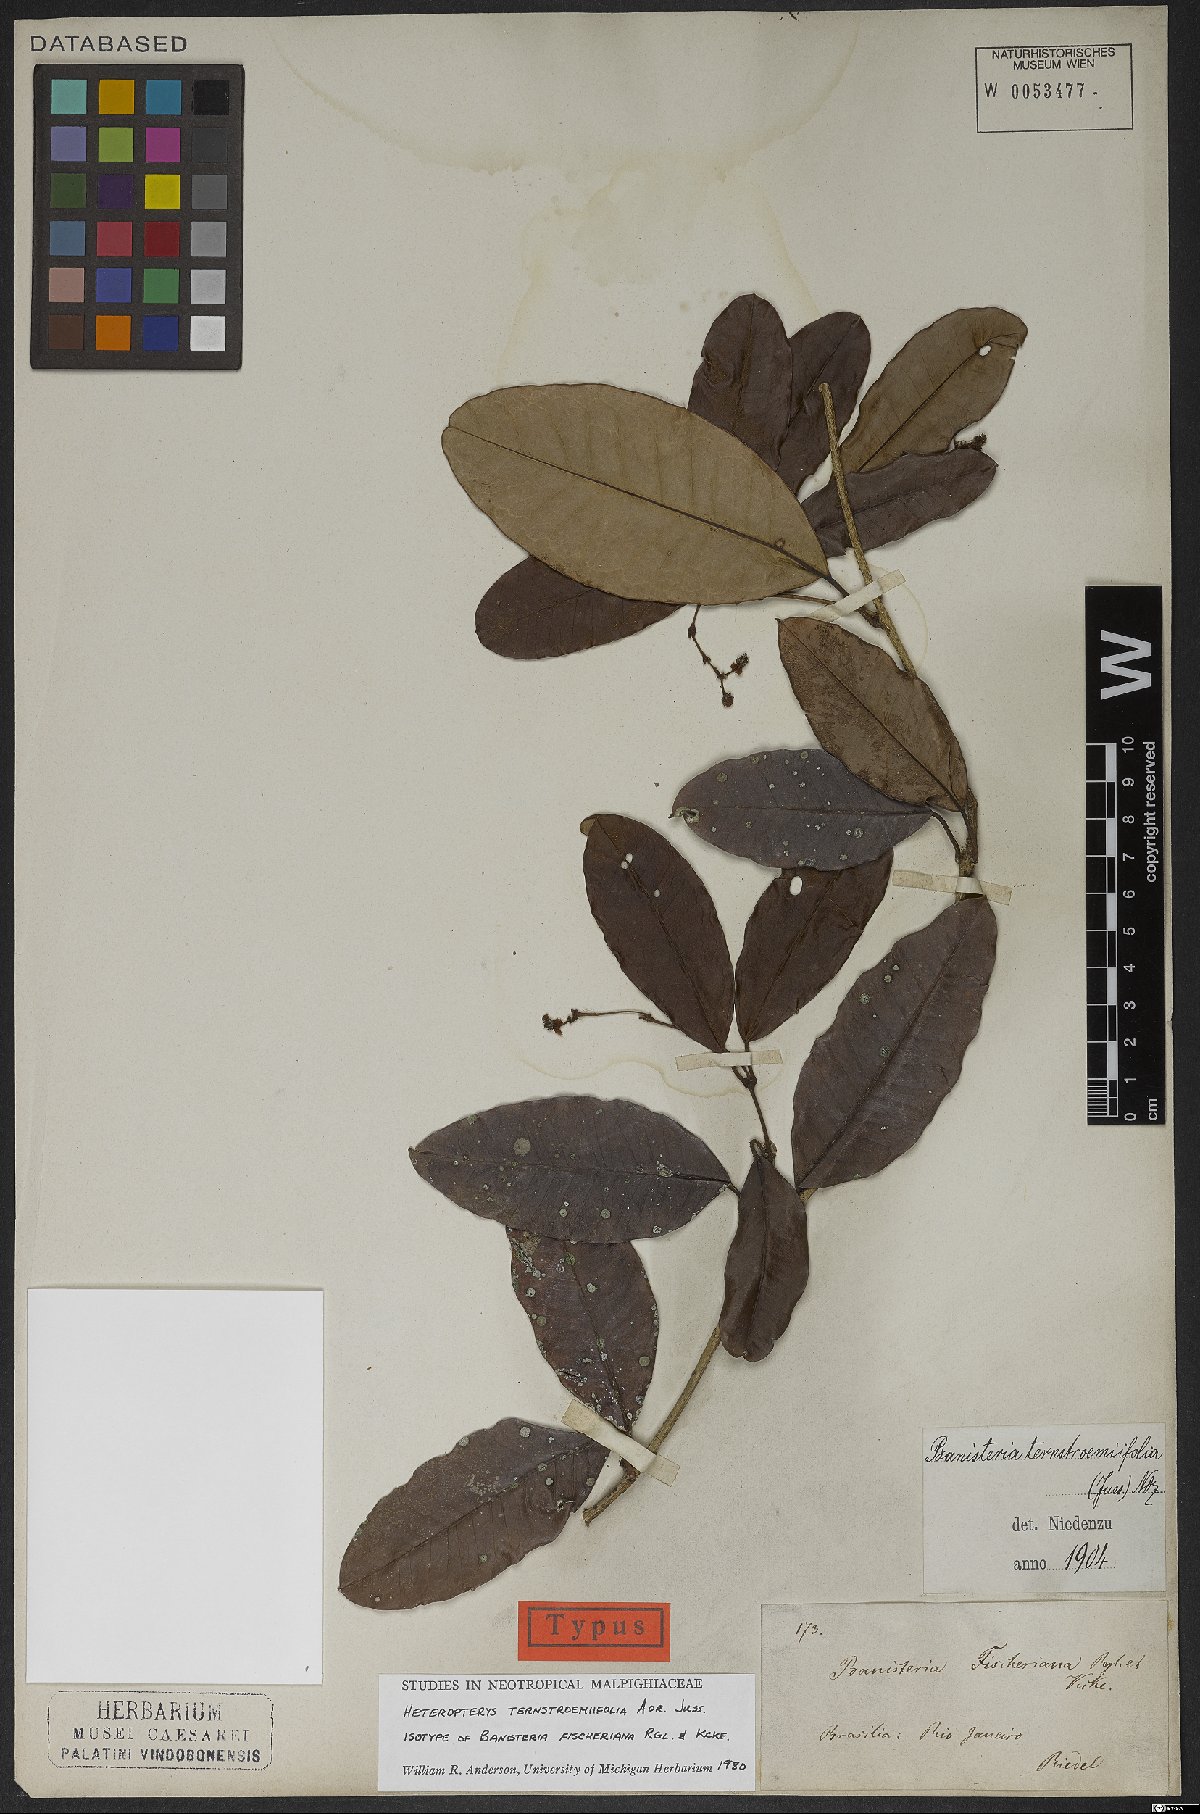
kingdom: Plantae
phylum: Tracheophyta
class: Magnoliopsida
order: Malpighiales
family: Malpighiaceae
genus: Heteropterys
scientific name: Heteropterys ternstroemiifolia
